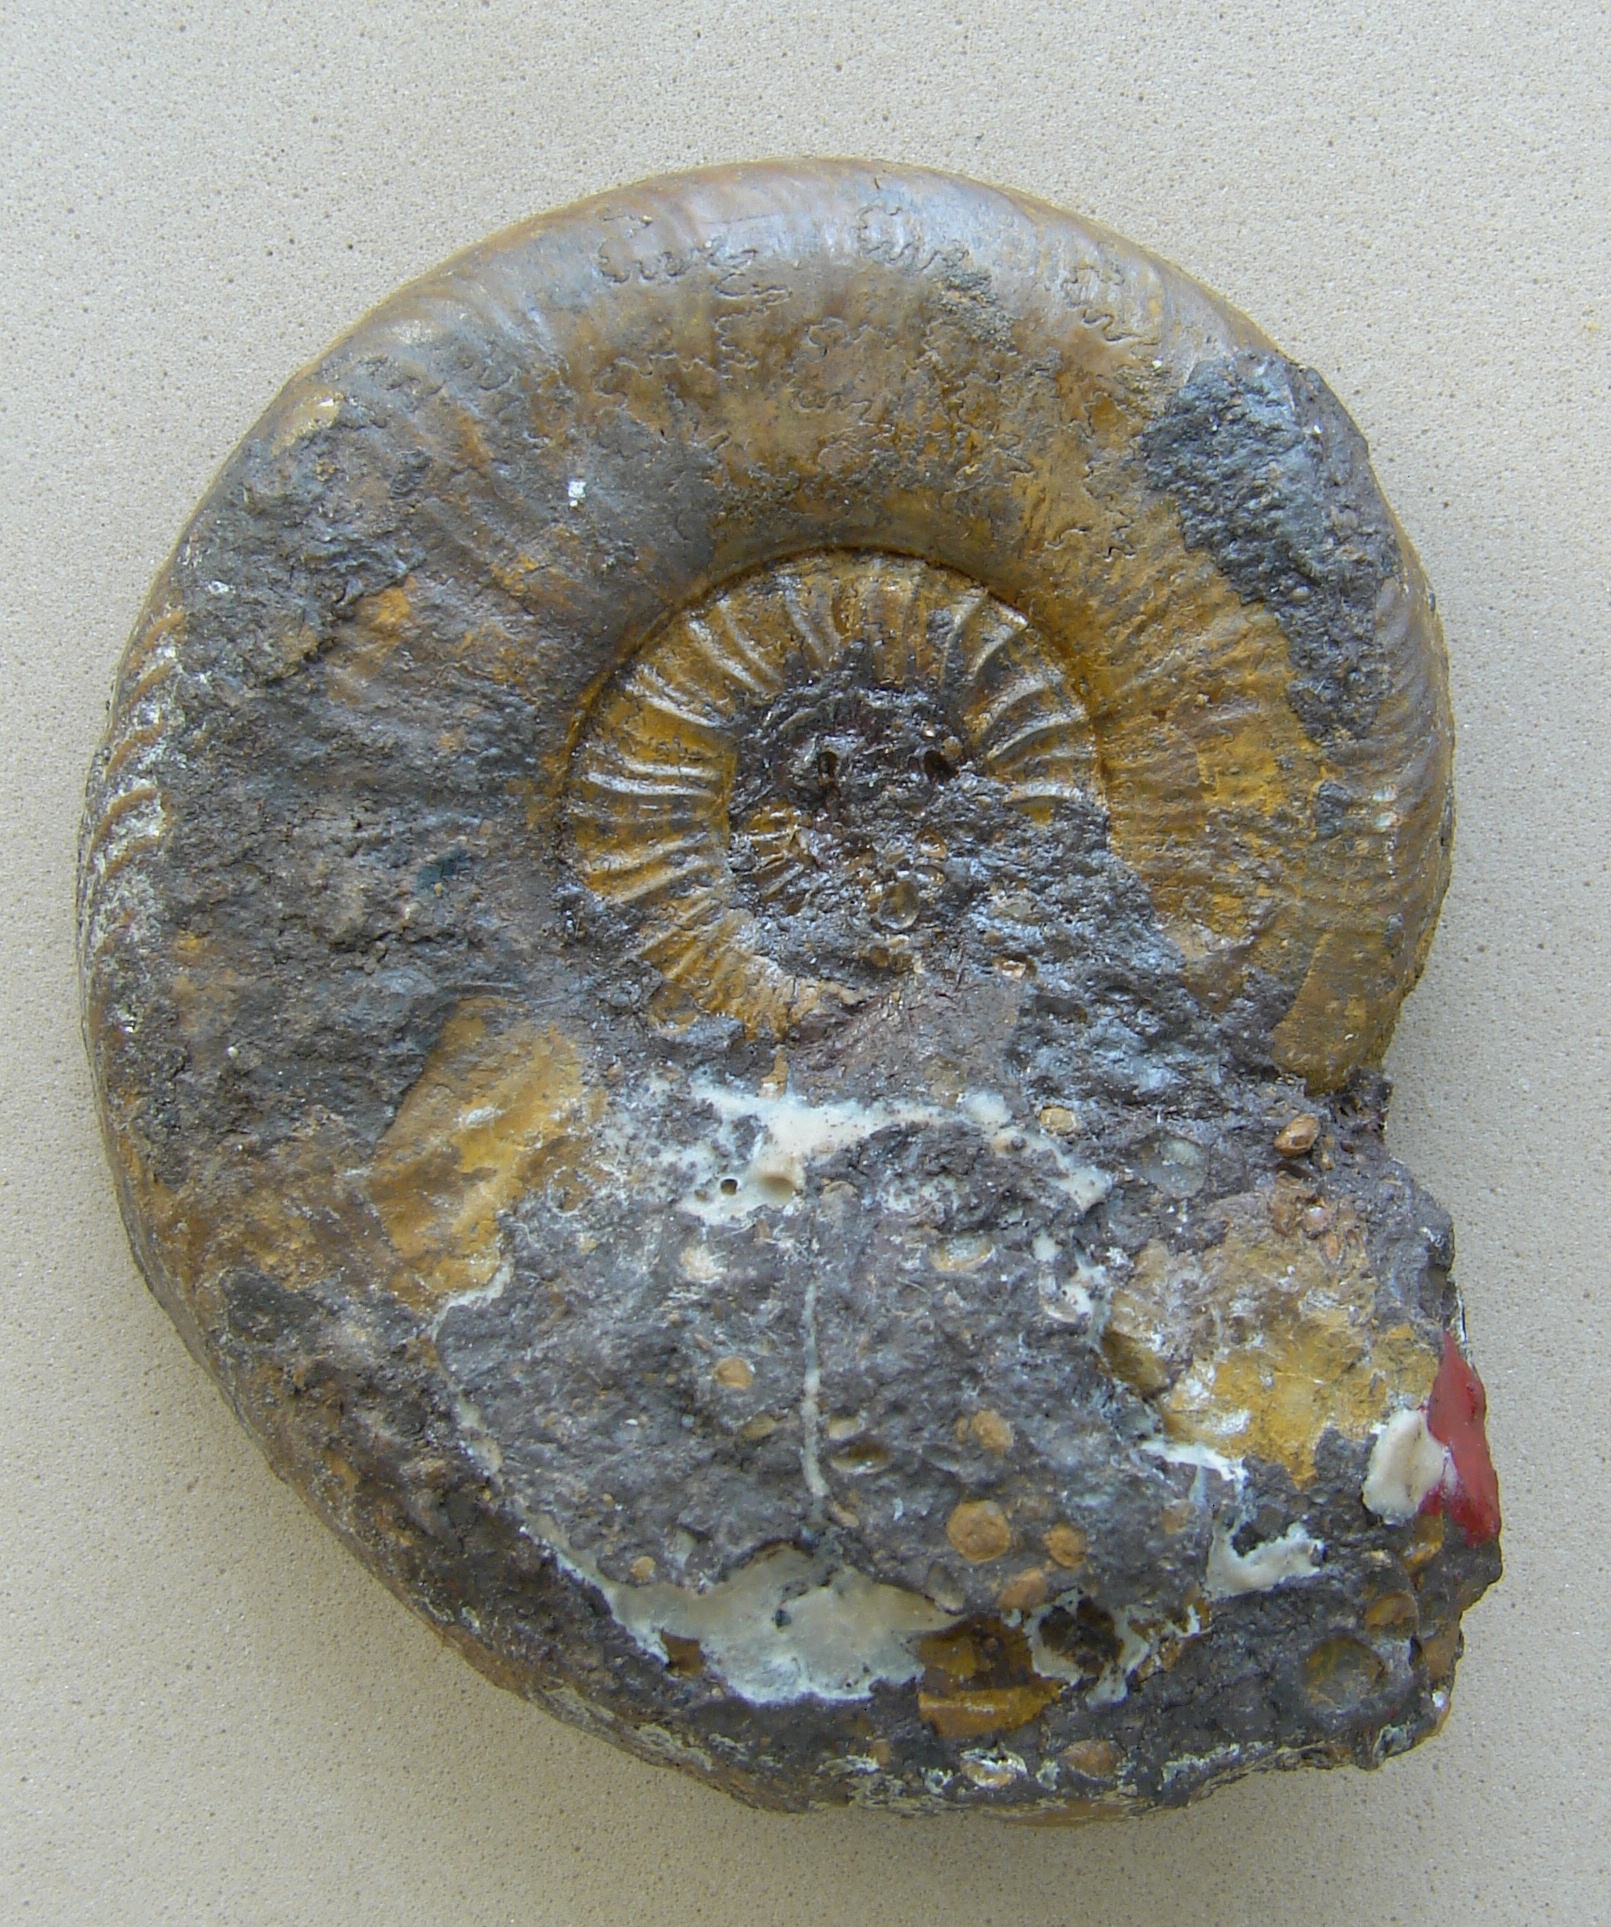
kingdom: Animalia
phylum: Mollusca
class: Cephalopoda
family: Hildoceratidae
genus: Pleydellia
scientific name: Pleydellia mactra
